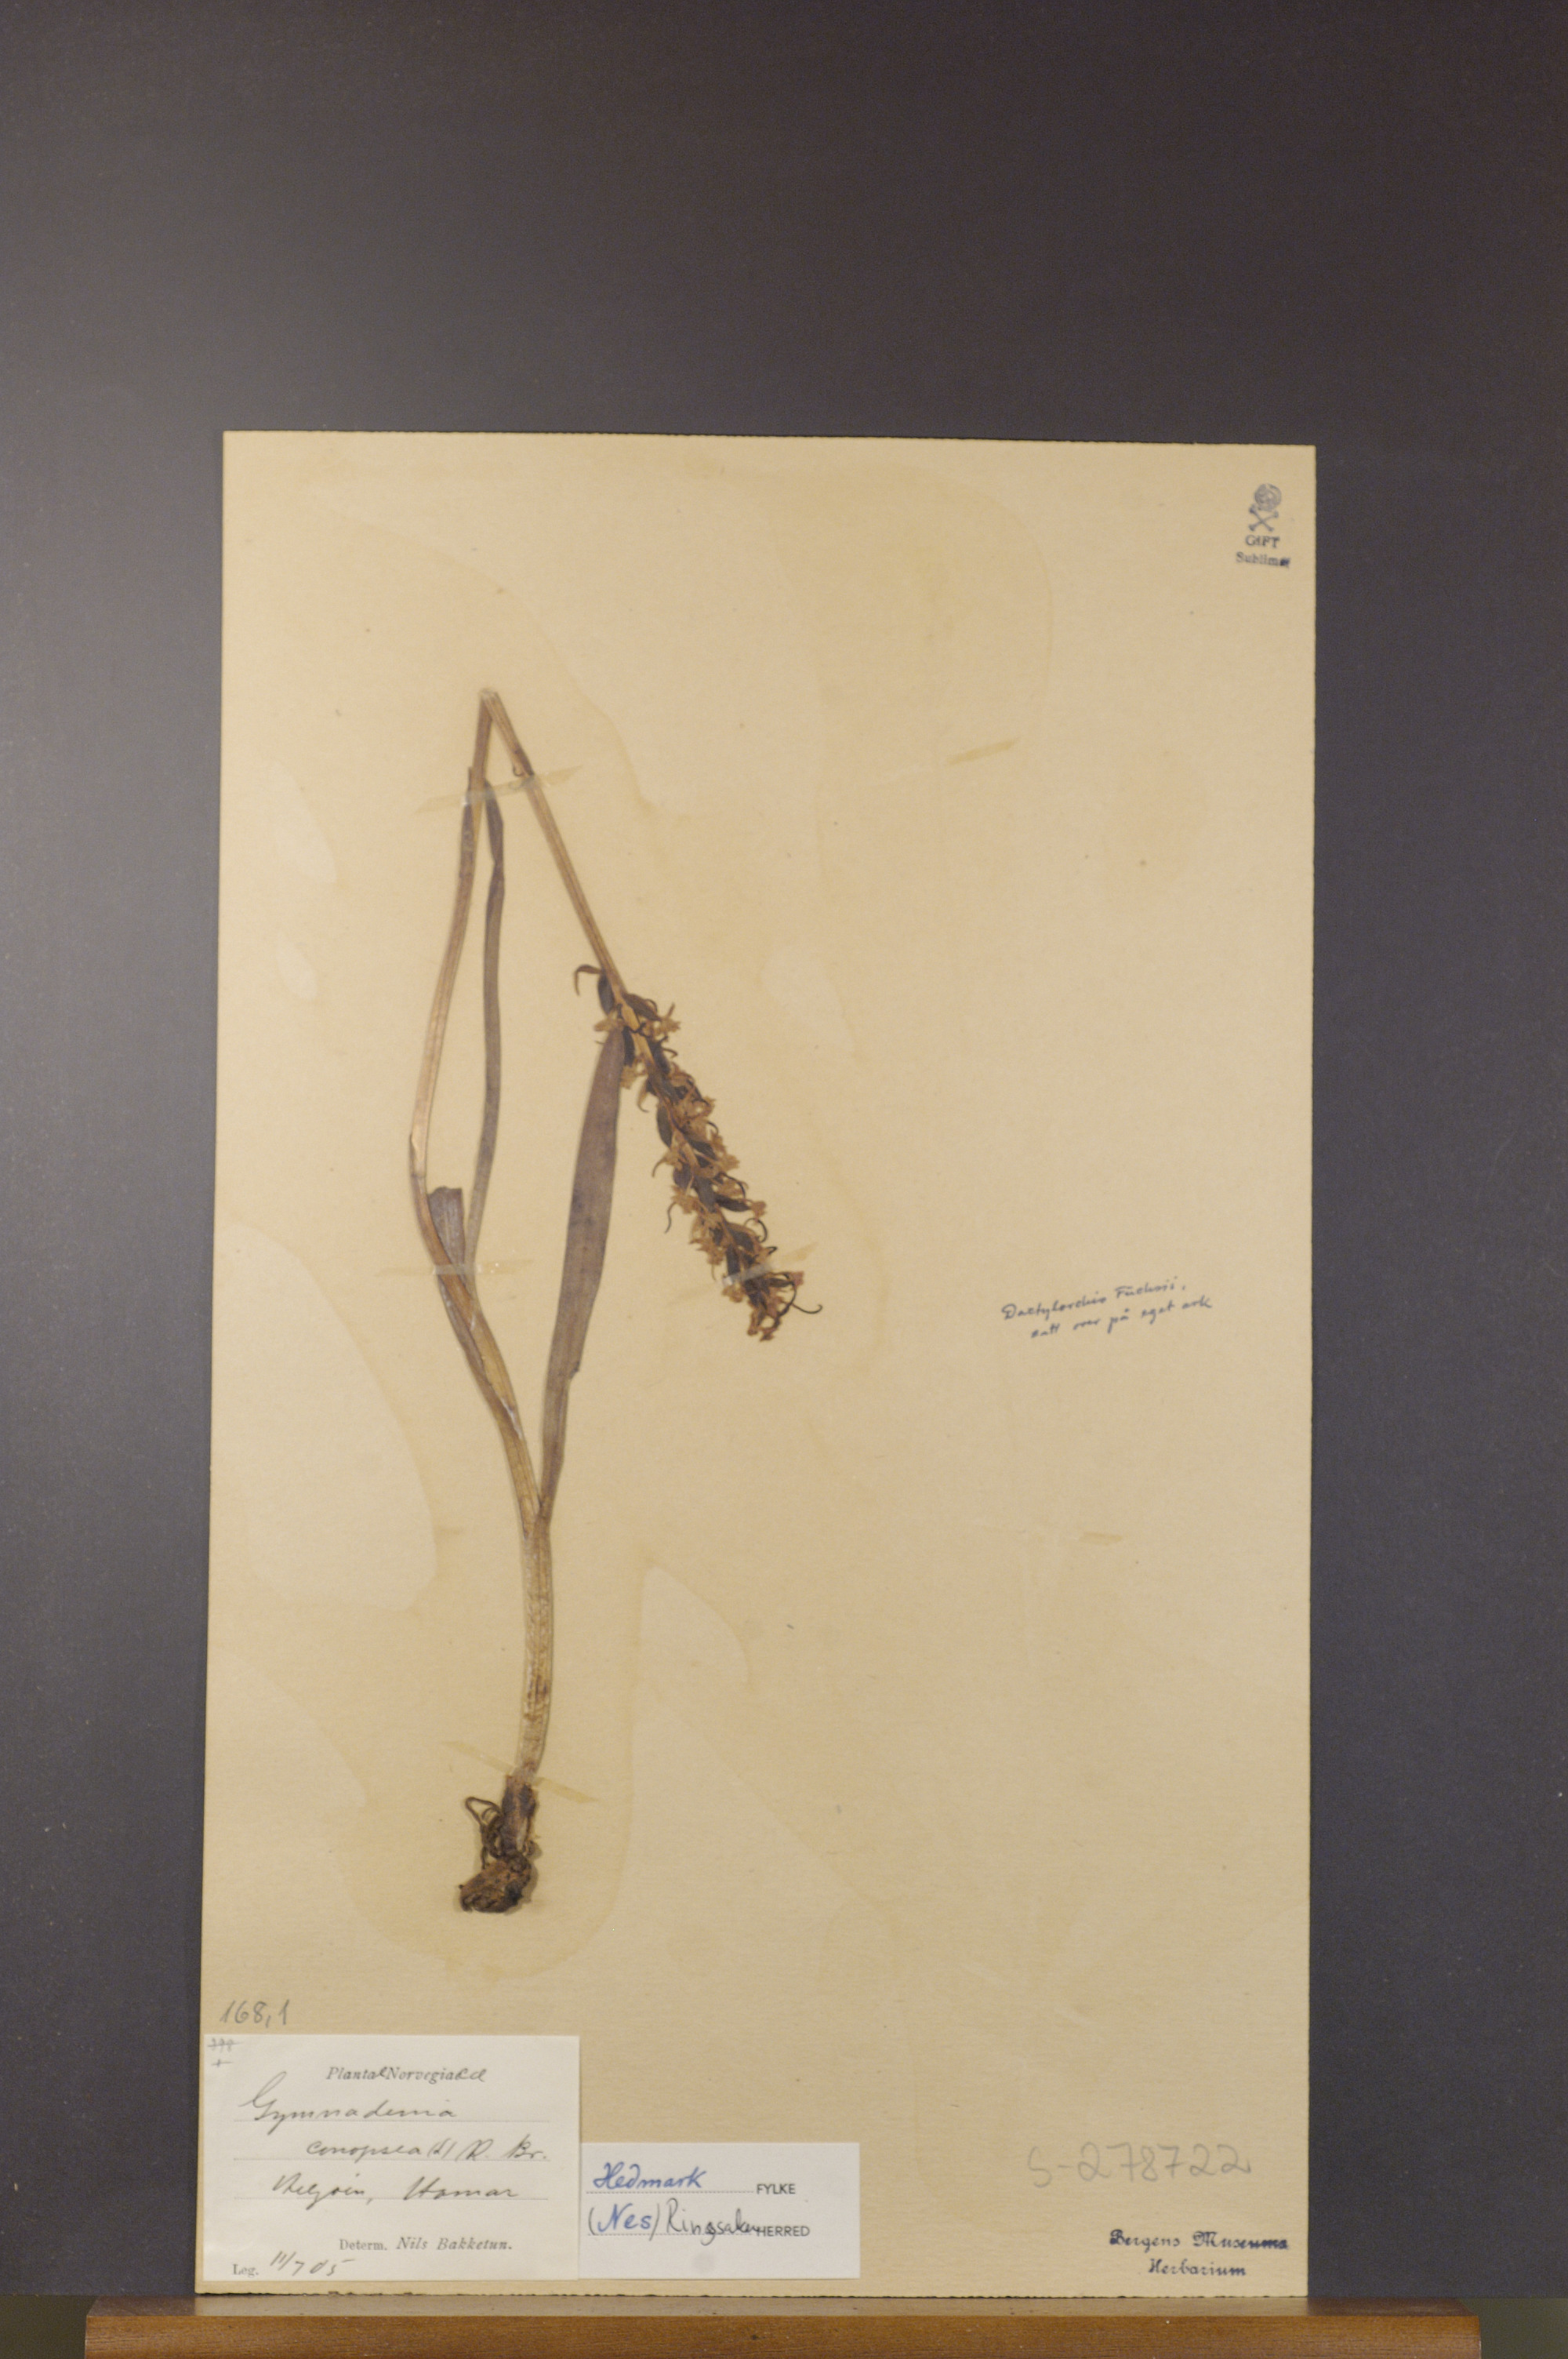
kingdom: Plantae
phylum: Tracheophyta
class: Liliopsida
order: Asparagales
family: Orchidaceae
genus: Gymnadenia
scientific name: Gymnadenia conopsea
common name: Fragrant orchid
